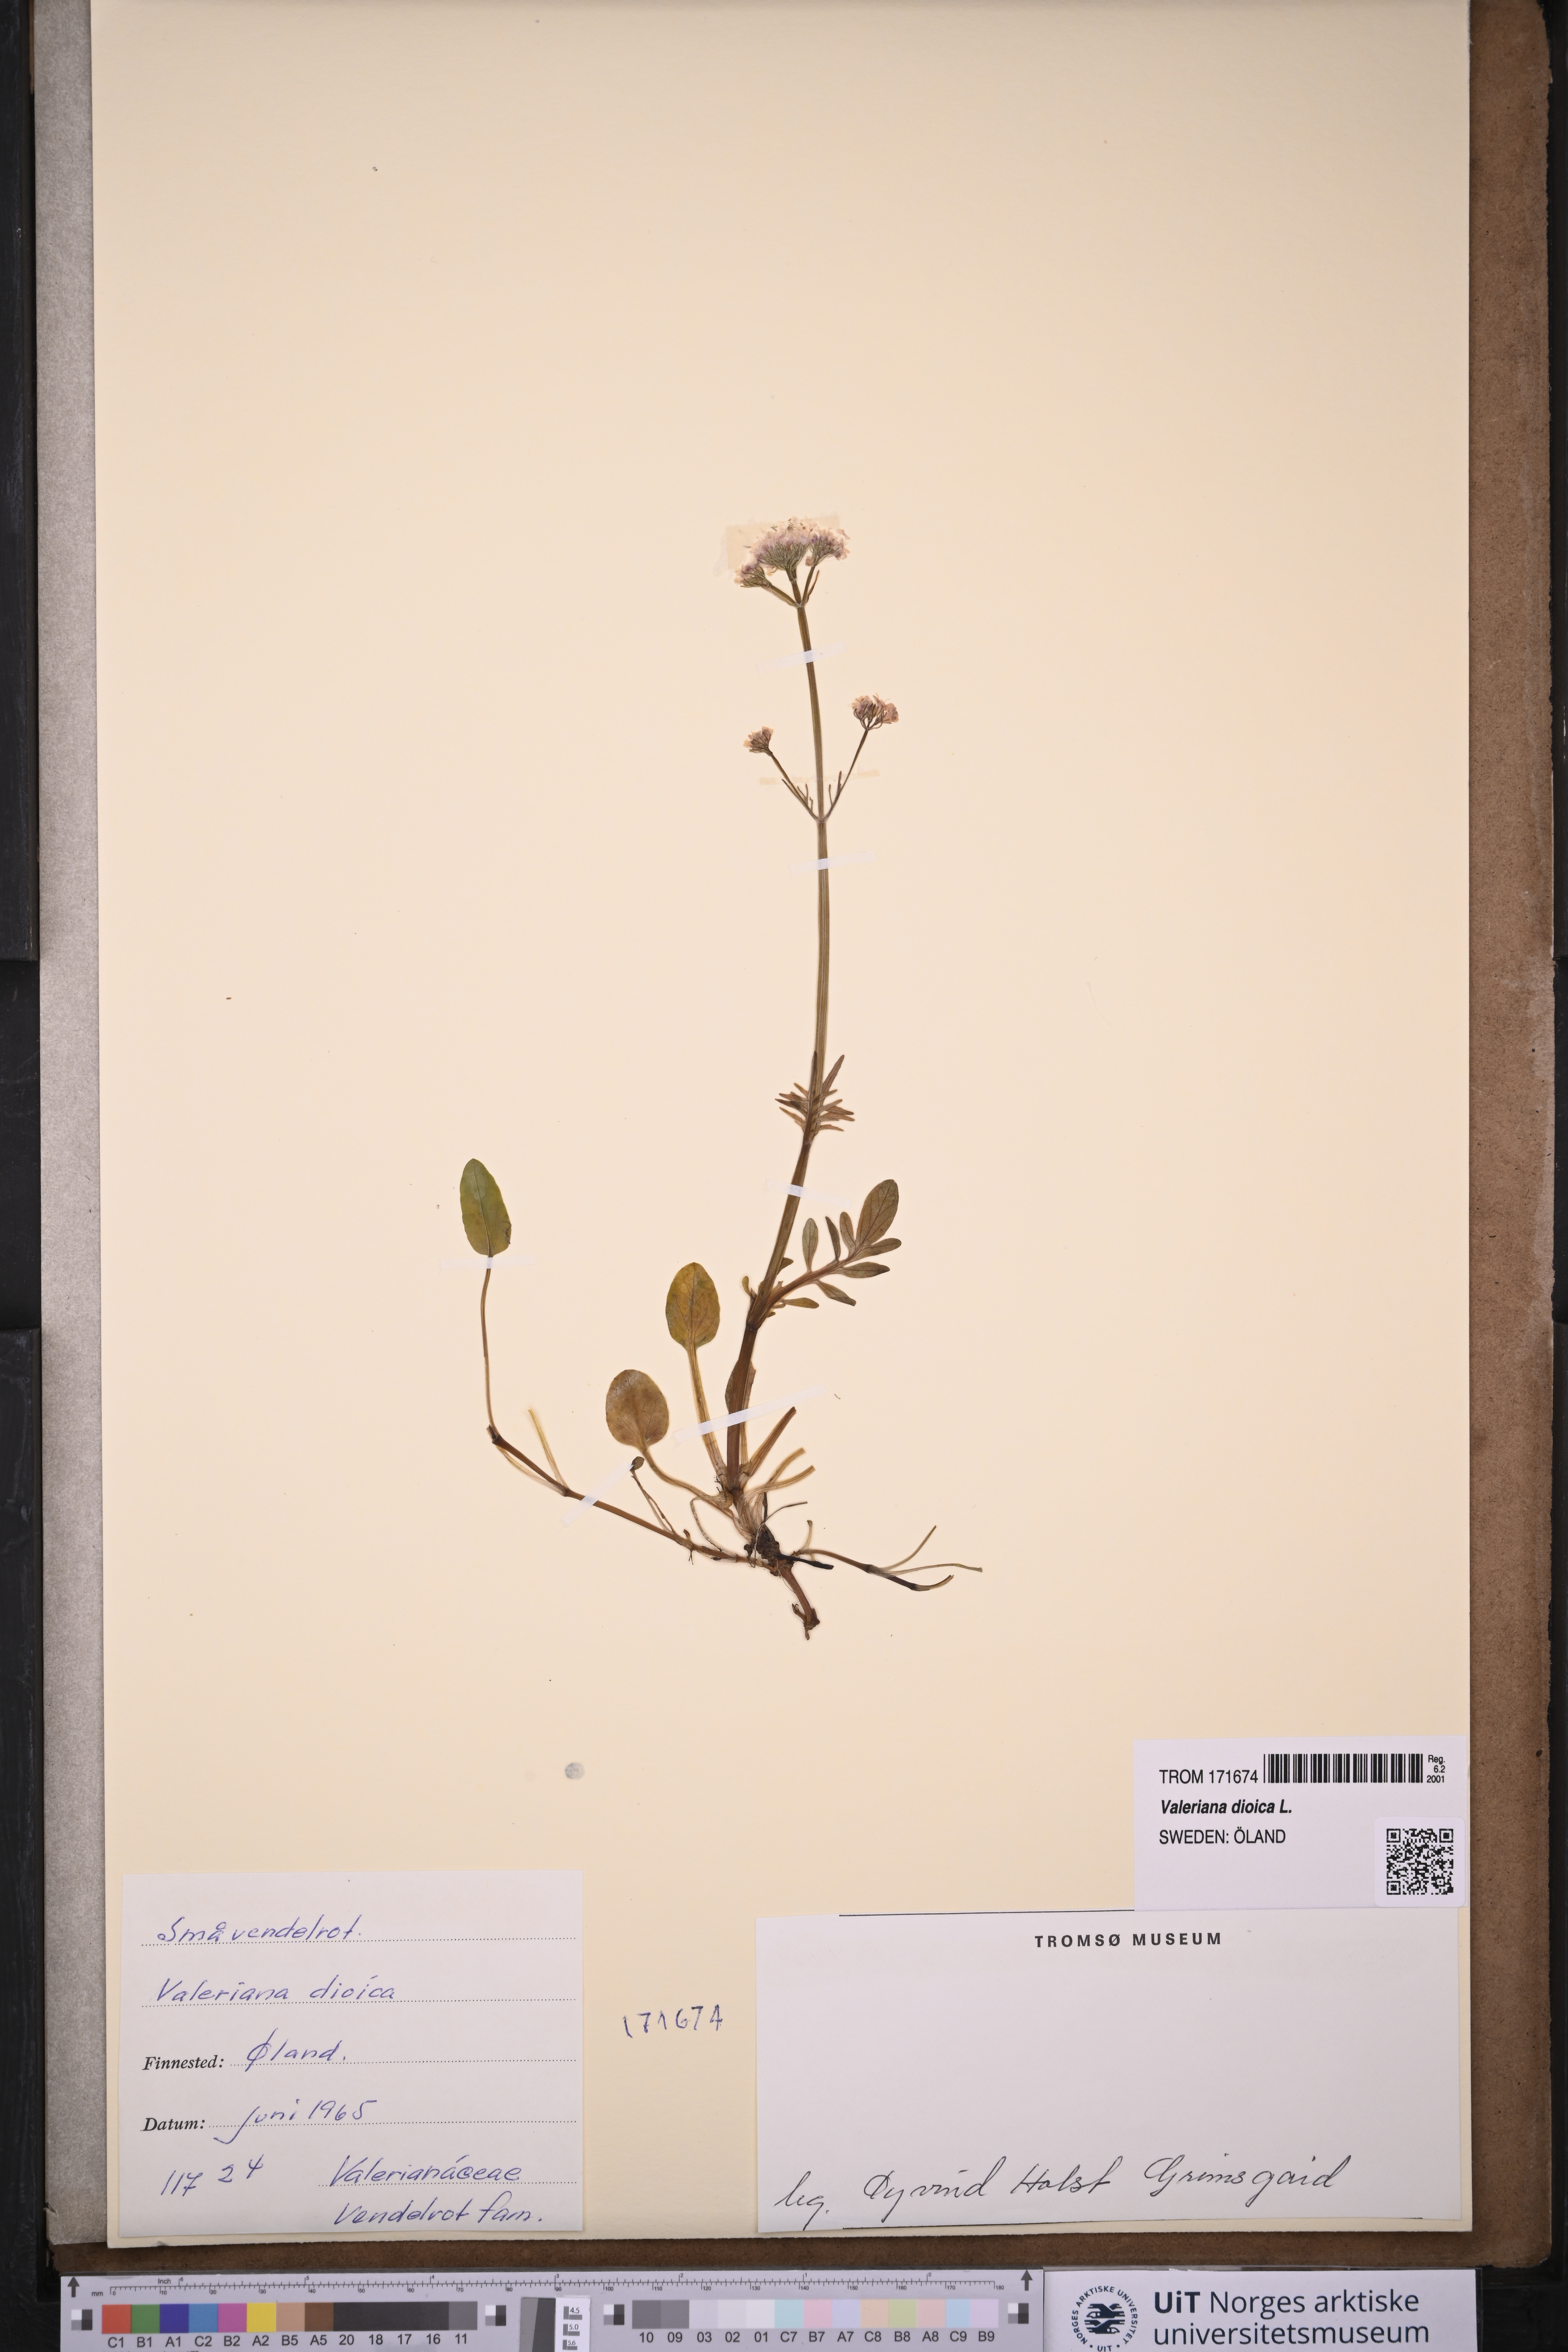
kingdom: Plantae
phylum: Tracheophyta
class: Magnoliopsida
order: Dipsacales
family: Caprifoliaceae
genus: Valeriana
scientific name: Valeriana dioica
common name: Marsh valerian
